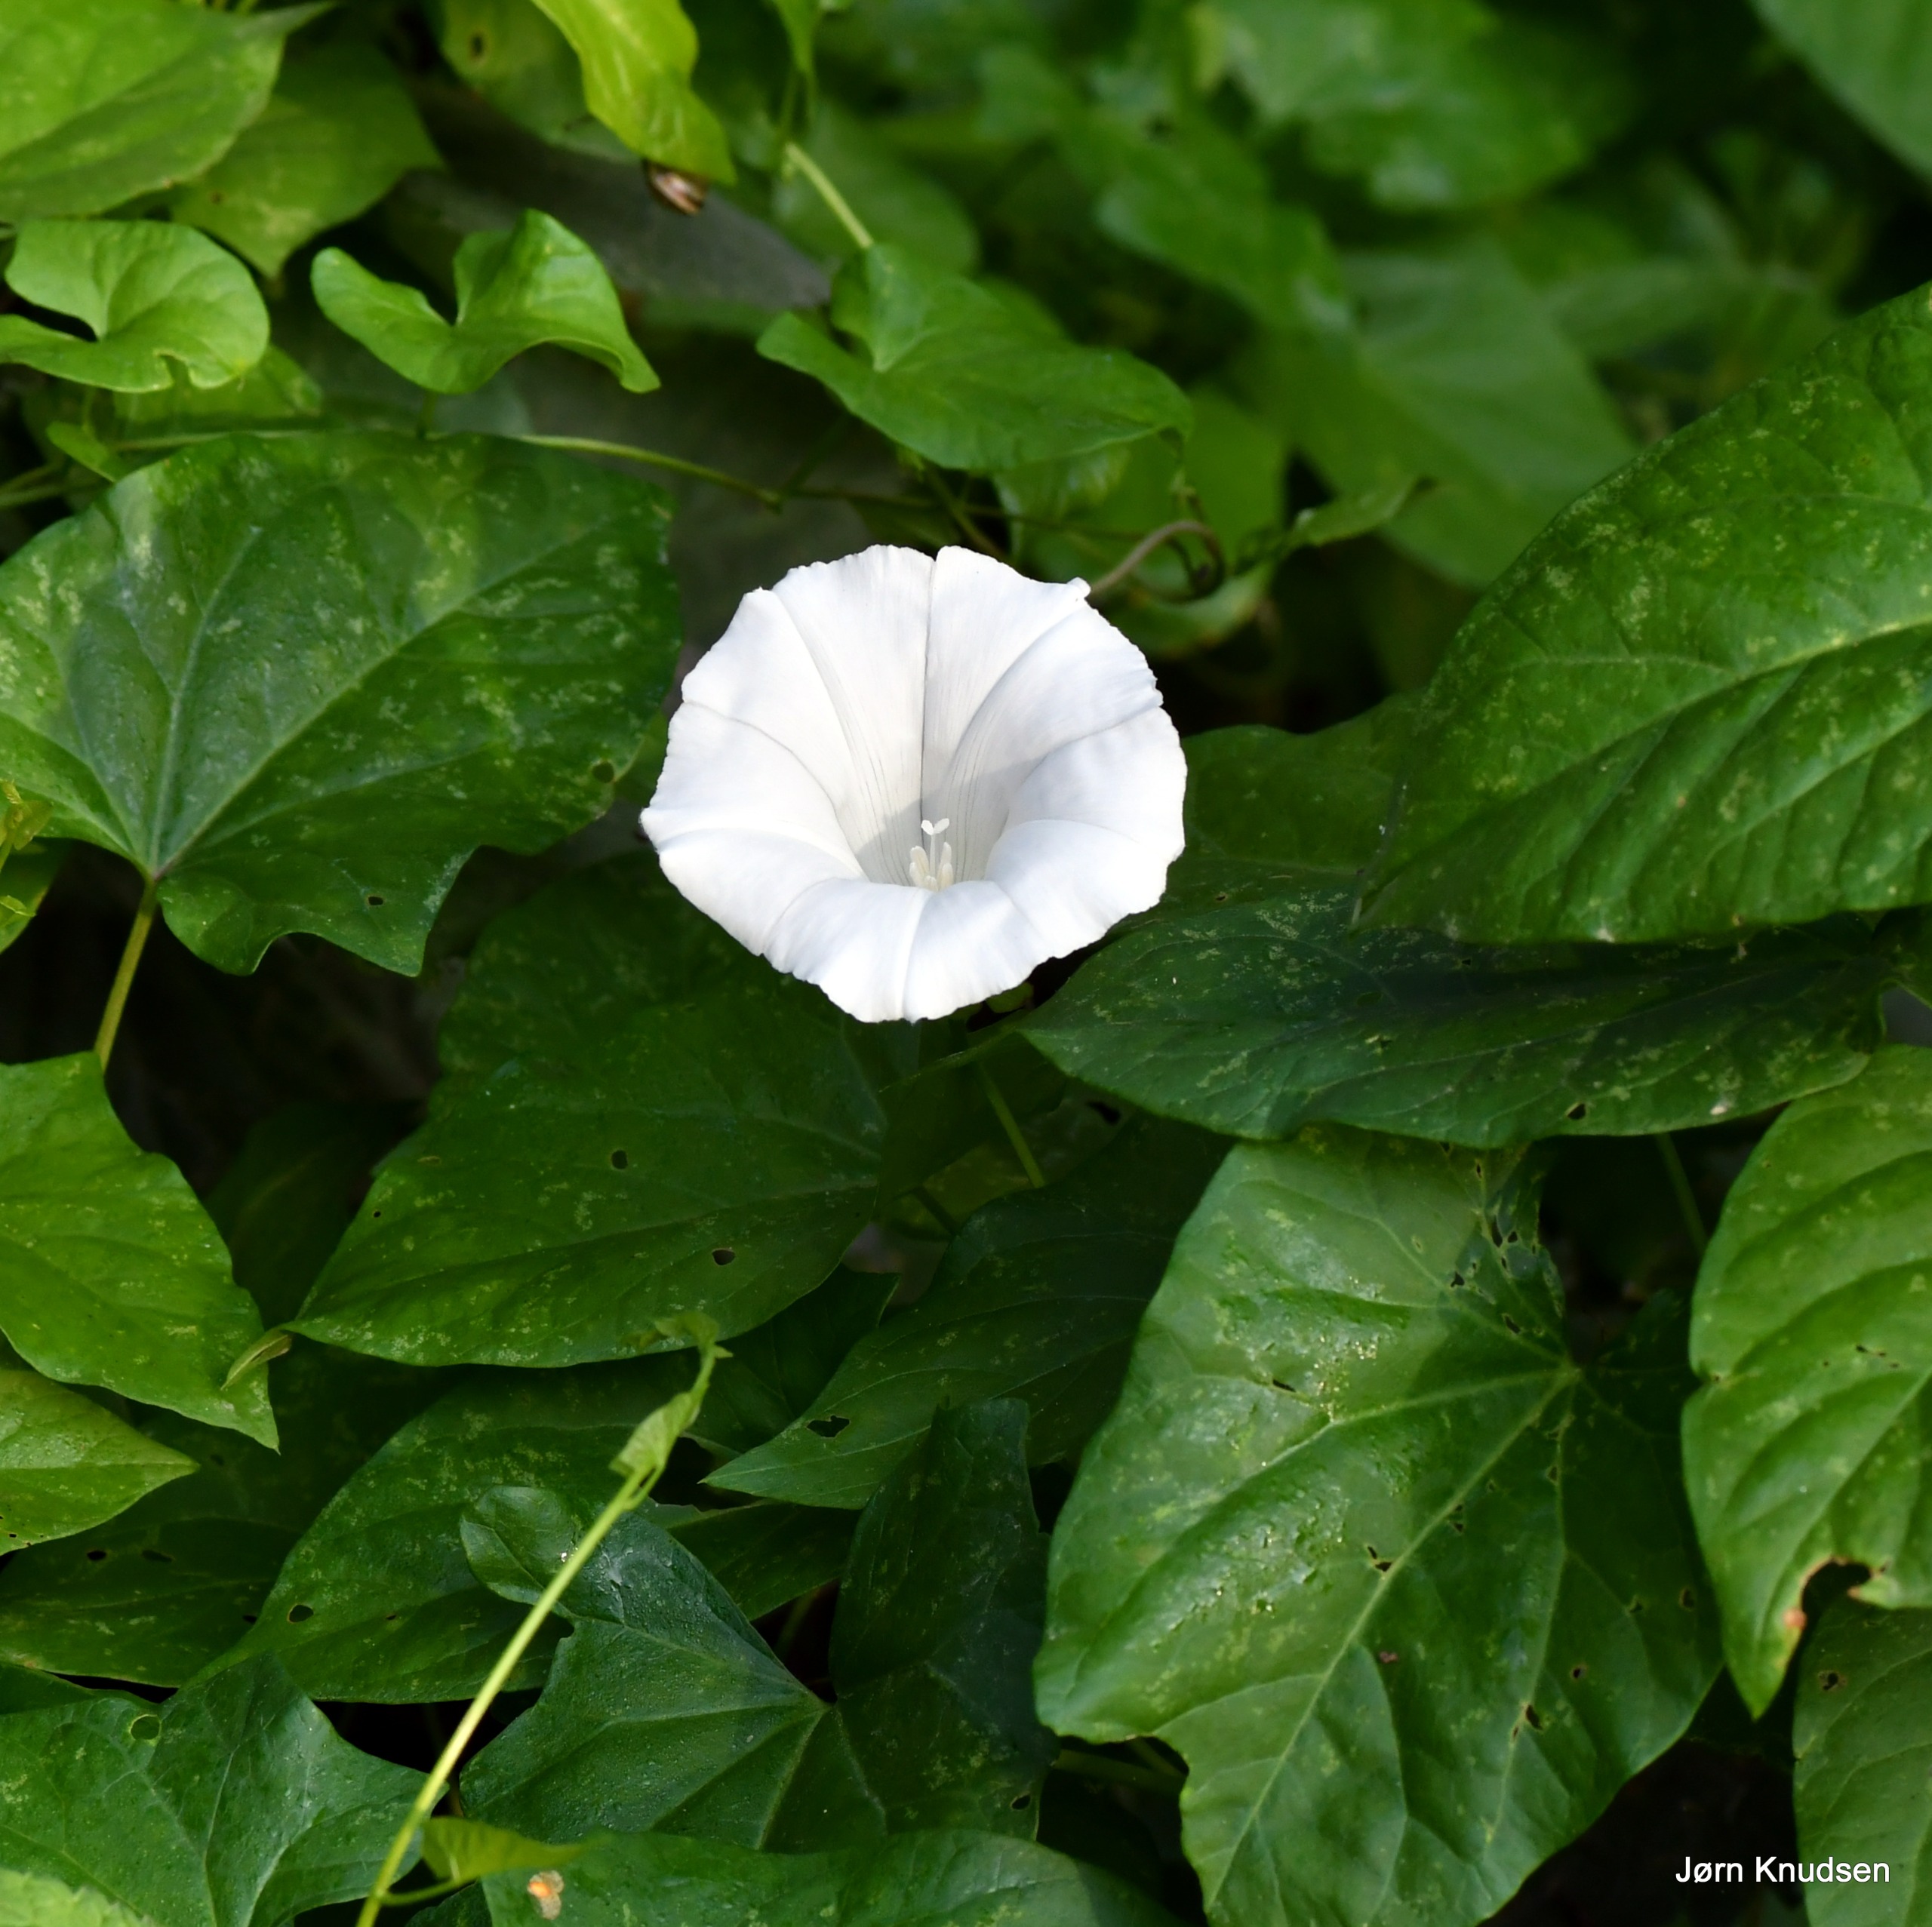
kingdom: Plantae
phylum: Tracheophyta
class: Magnoliopsida
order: Solanales
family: Convolvulaceae
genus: Calystegia
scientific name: Calystegia sepium
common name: Gærde-snerle
